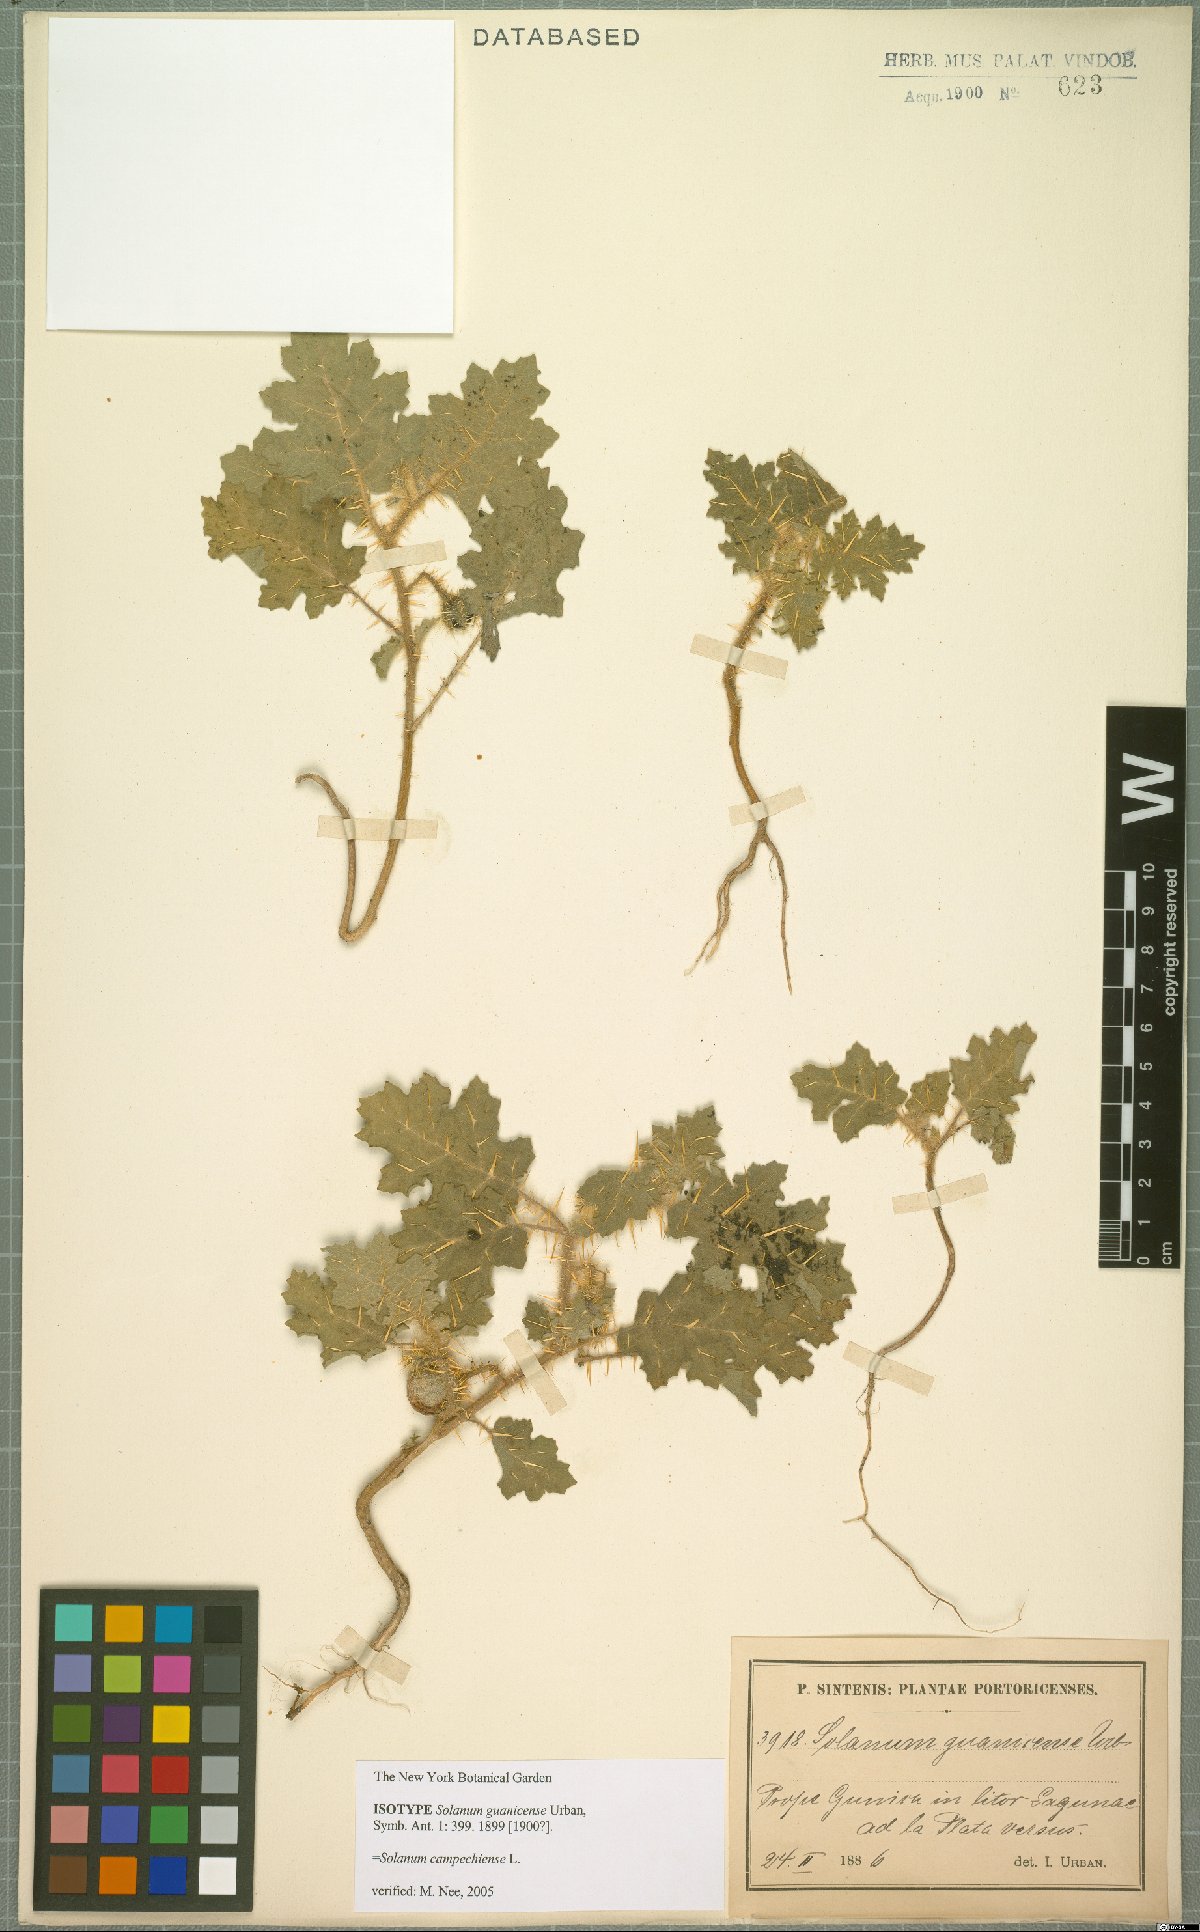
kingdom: Plantae
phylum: Tracheophyta
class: Magnoliopsida
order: Solanales
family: Solanaceae
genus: Solanum
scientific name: Solanum campechiense
